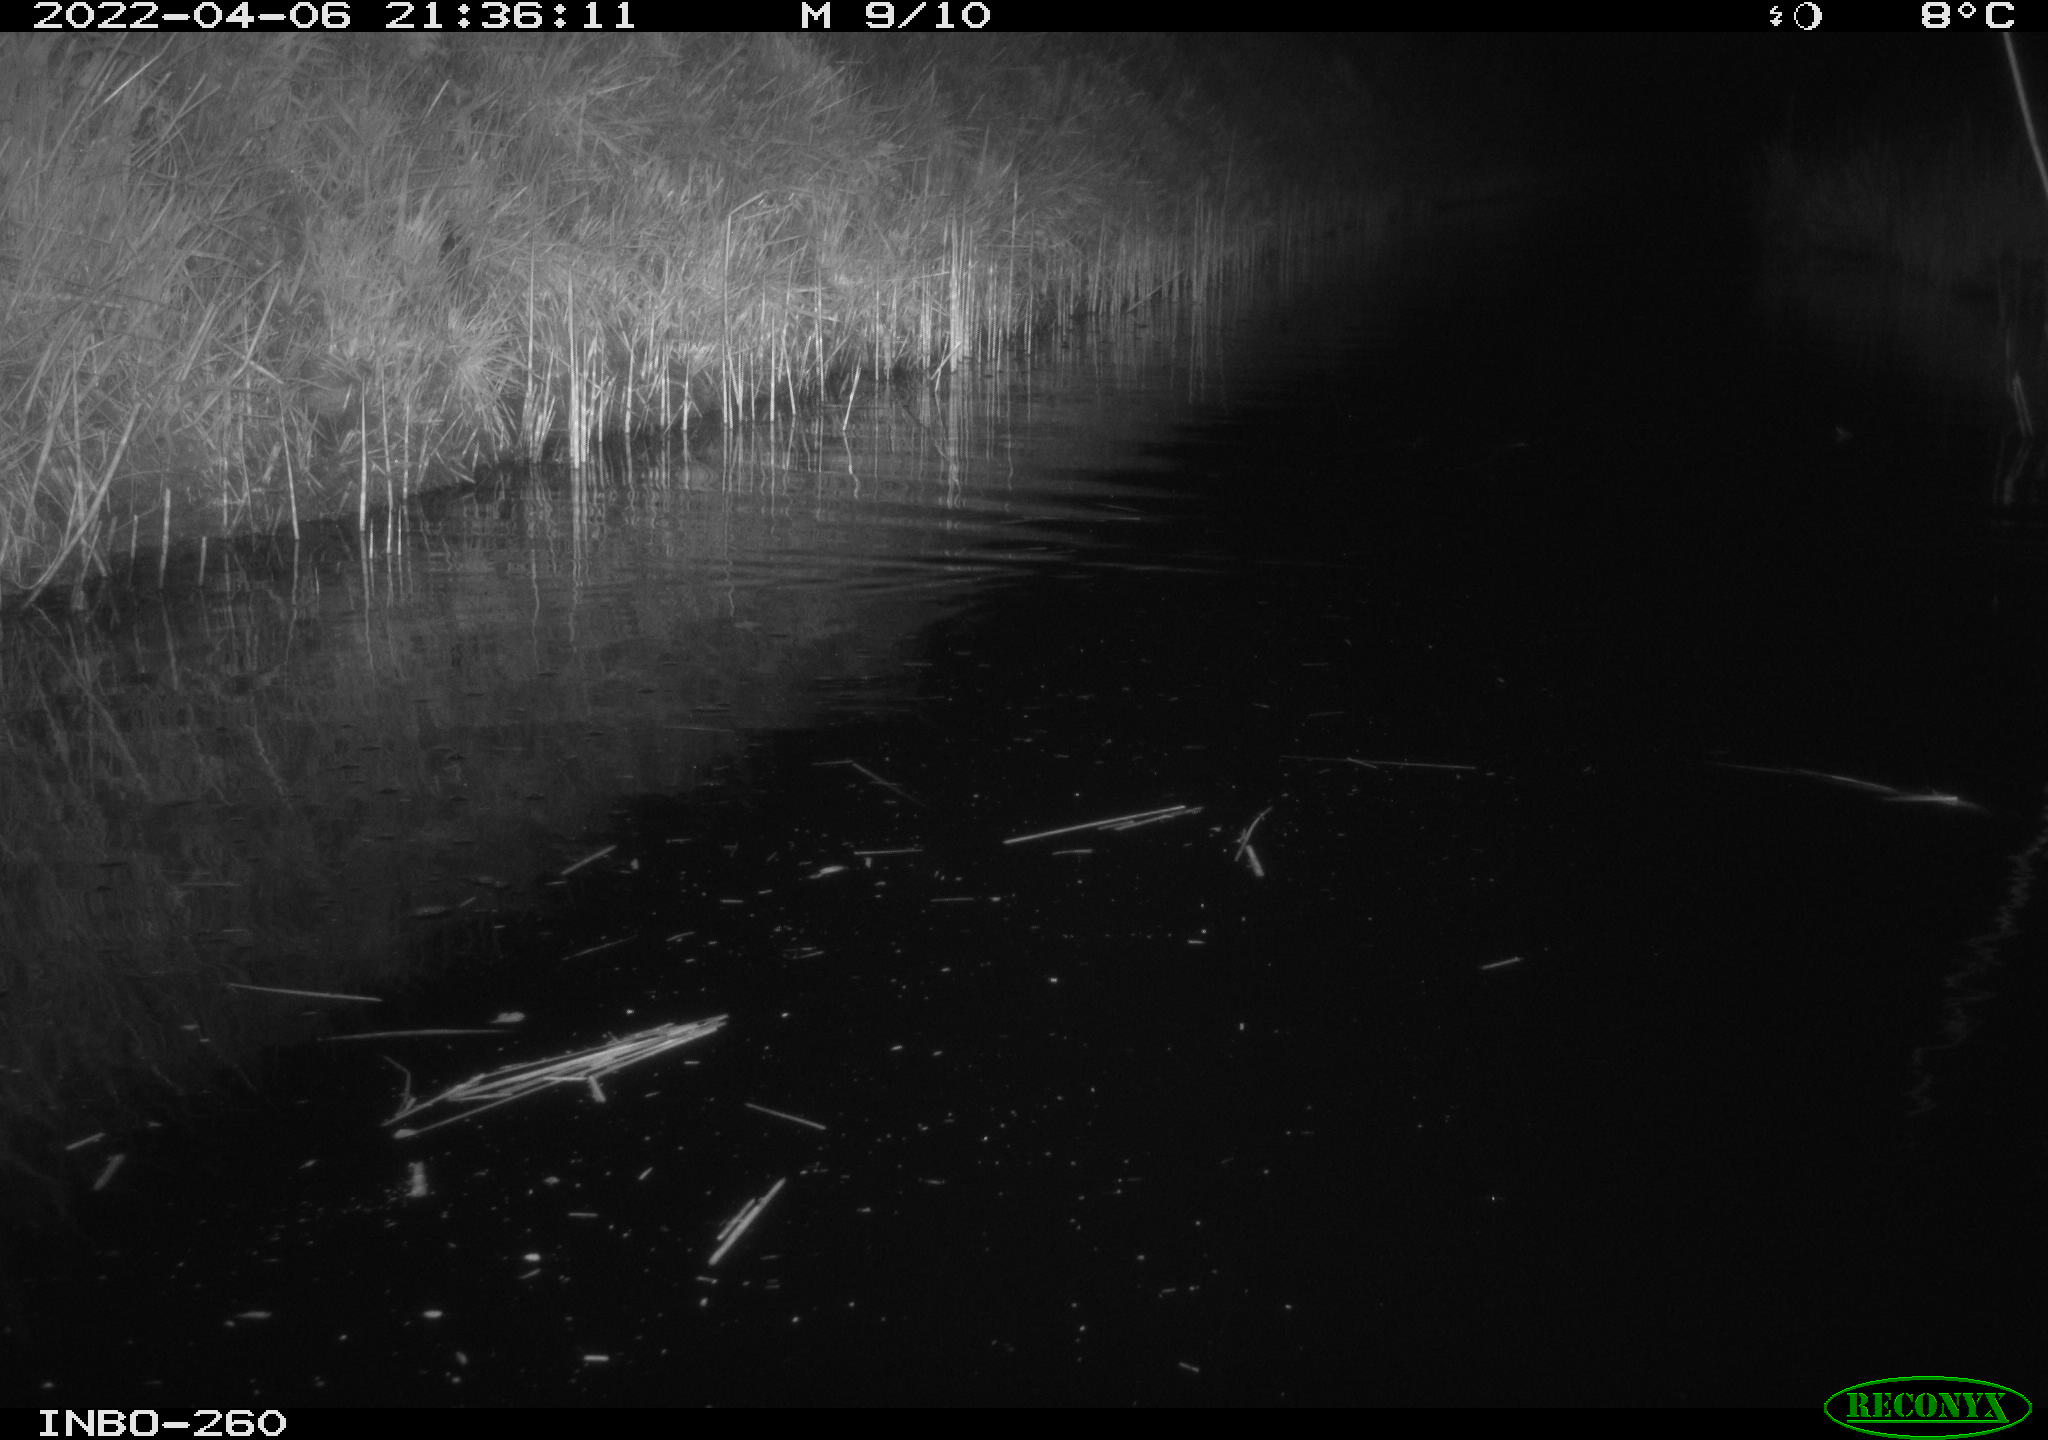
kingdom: Animalia
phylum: Chordata
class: Mammalia
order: Rodentia
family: Muridae
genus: Rattus
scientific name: Rattus norvegicus
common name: Brown rat
